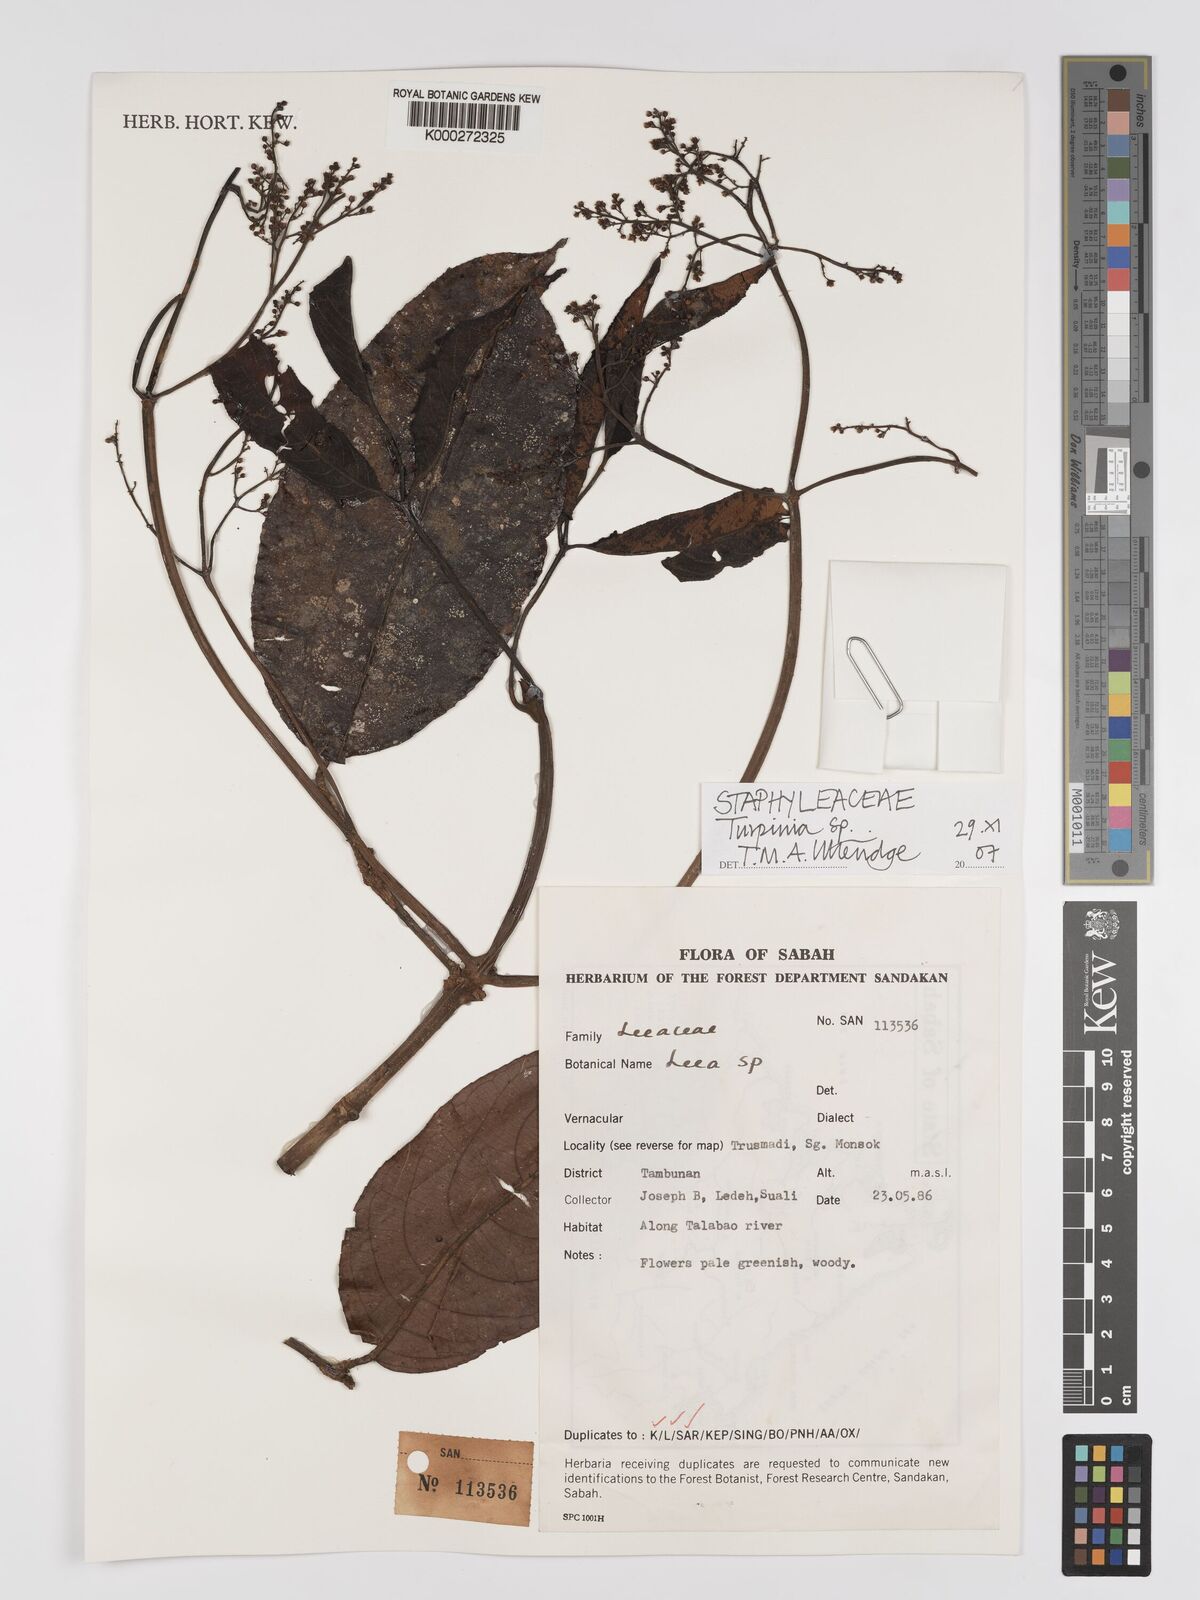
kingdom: Plantae
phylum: Tracheophyta
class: Magnoliopsida
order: Crossosomatales
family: Staphyleaceae
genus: Turpinia
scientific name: Turpinia
